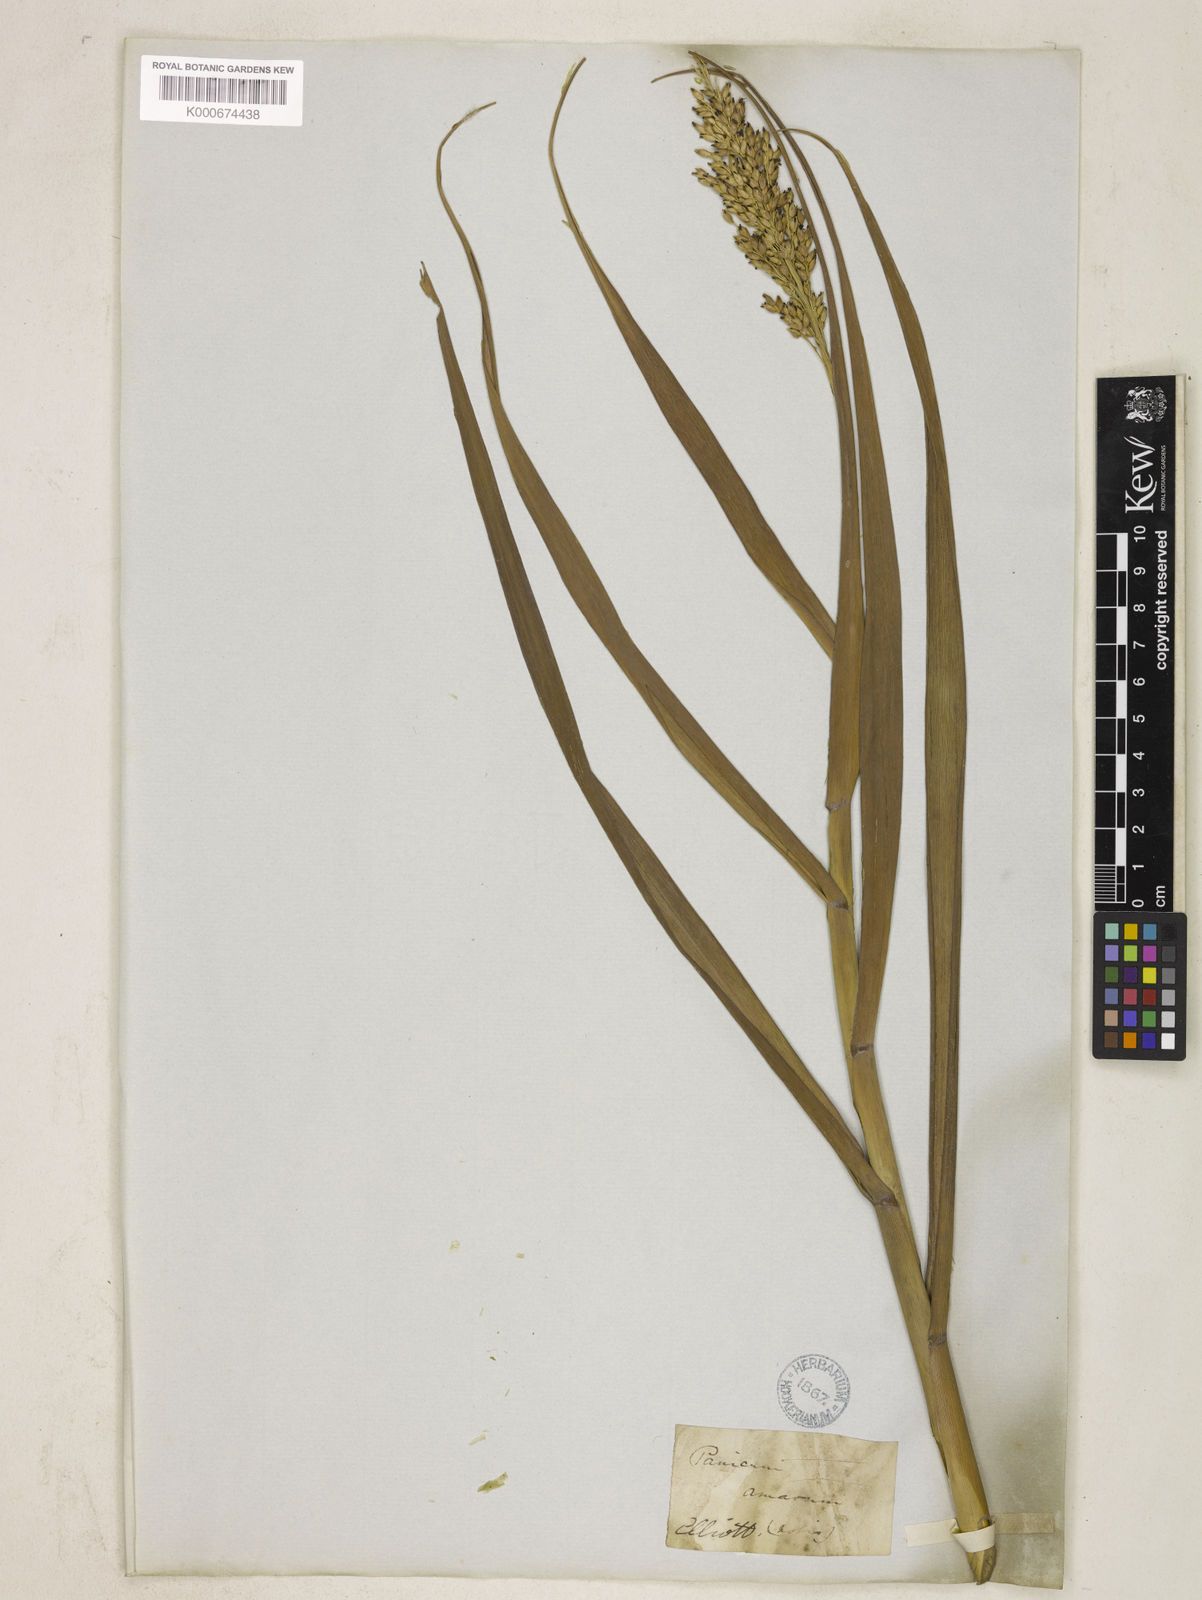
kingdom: Plantae
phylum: Tracheophyta
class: Liliopsida
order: Poales
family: Poaceae
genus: Panicum
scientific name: Panicum amarum
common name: Bitter panicum
